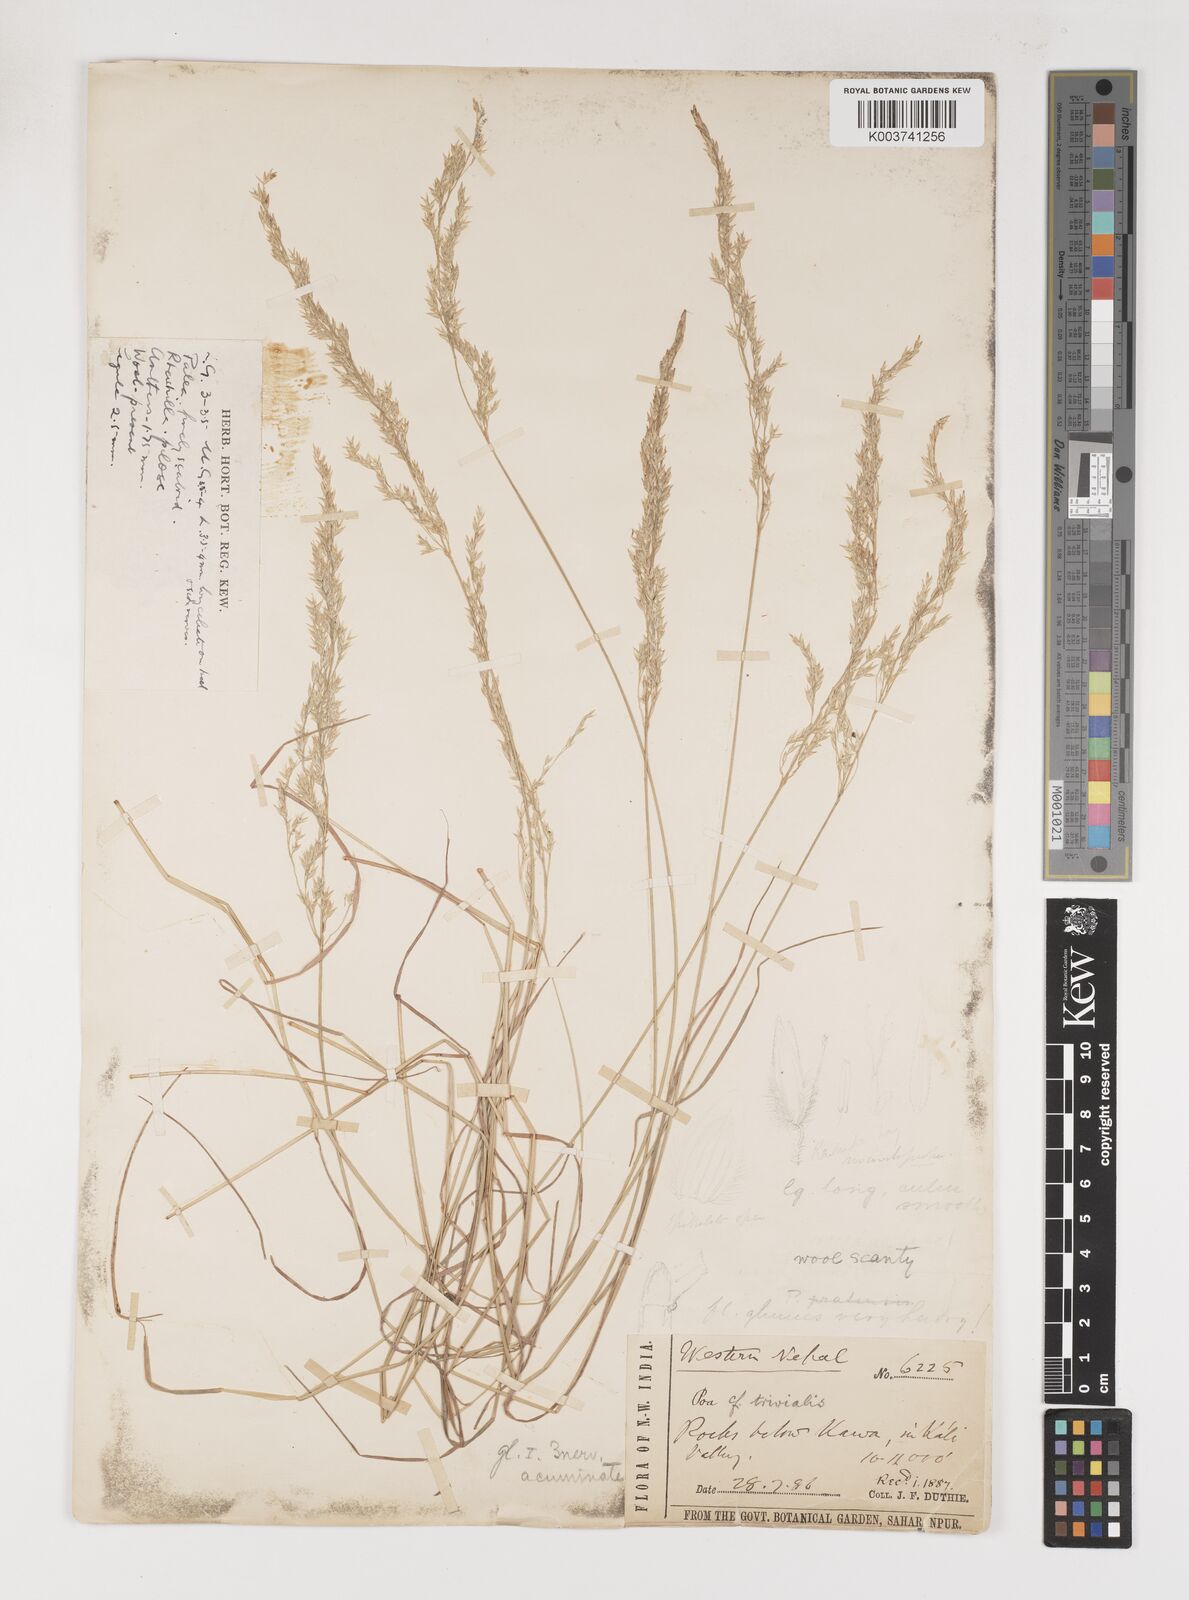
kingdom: Plantae
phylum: Tracheophyta
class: Liliopsida
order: Poales
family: Poaceae
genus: Poa
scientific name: Poa
